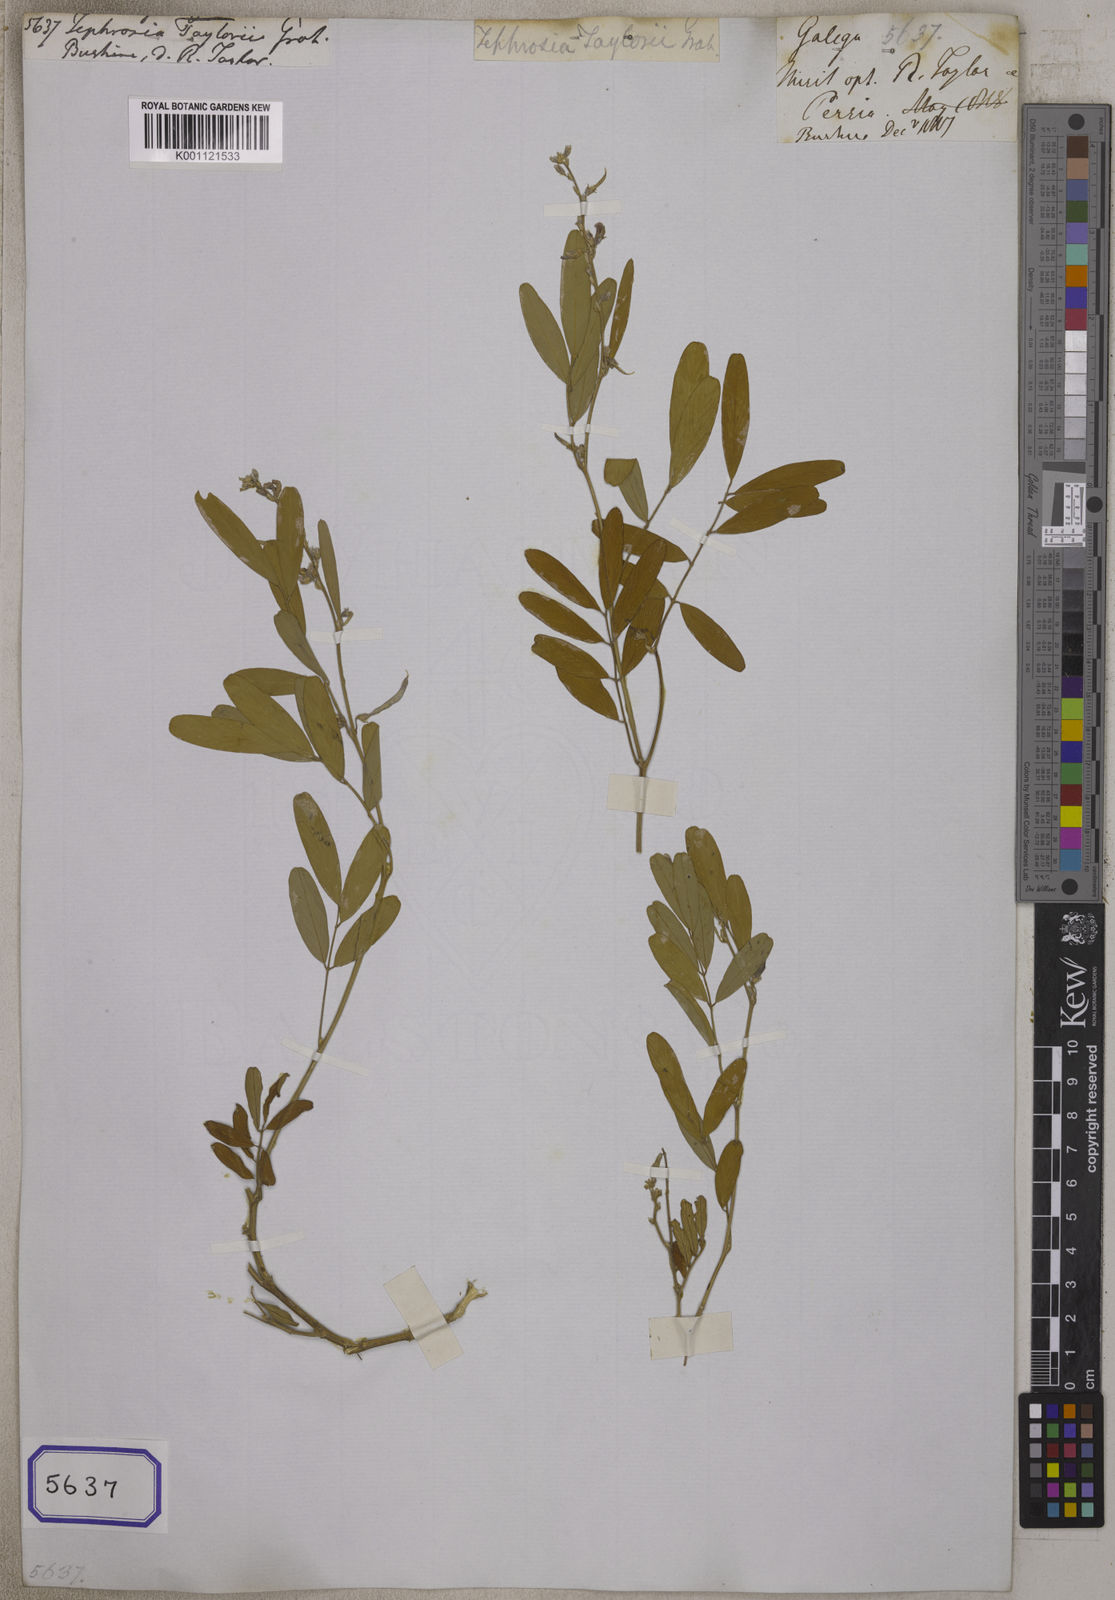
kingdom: Plantae
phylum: Tracheophyta
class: Magnoliopsida
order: Fabales
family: Fabaceae
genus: Tephrosia
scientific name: Tephrosia purpurea
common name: Fishpoison
